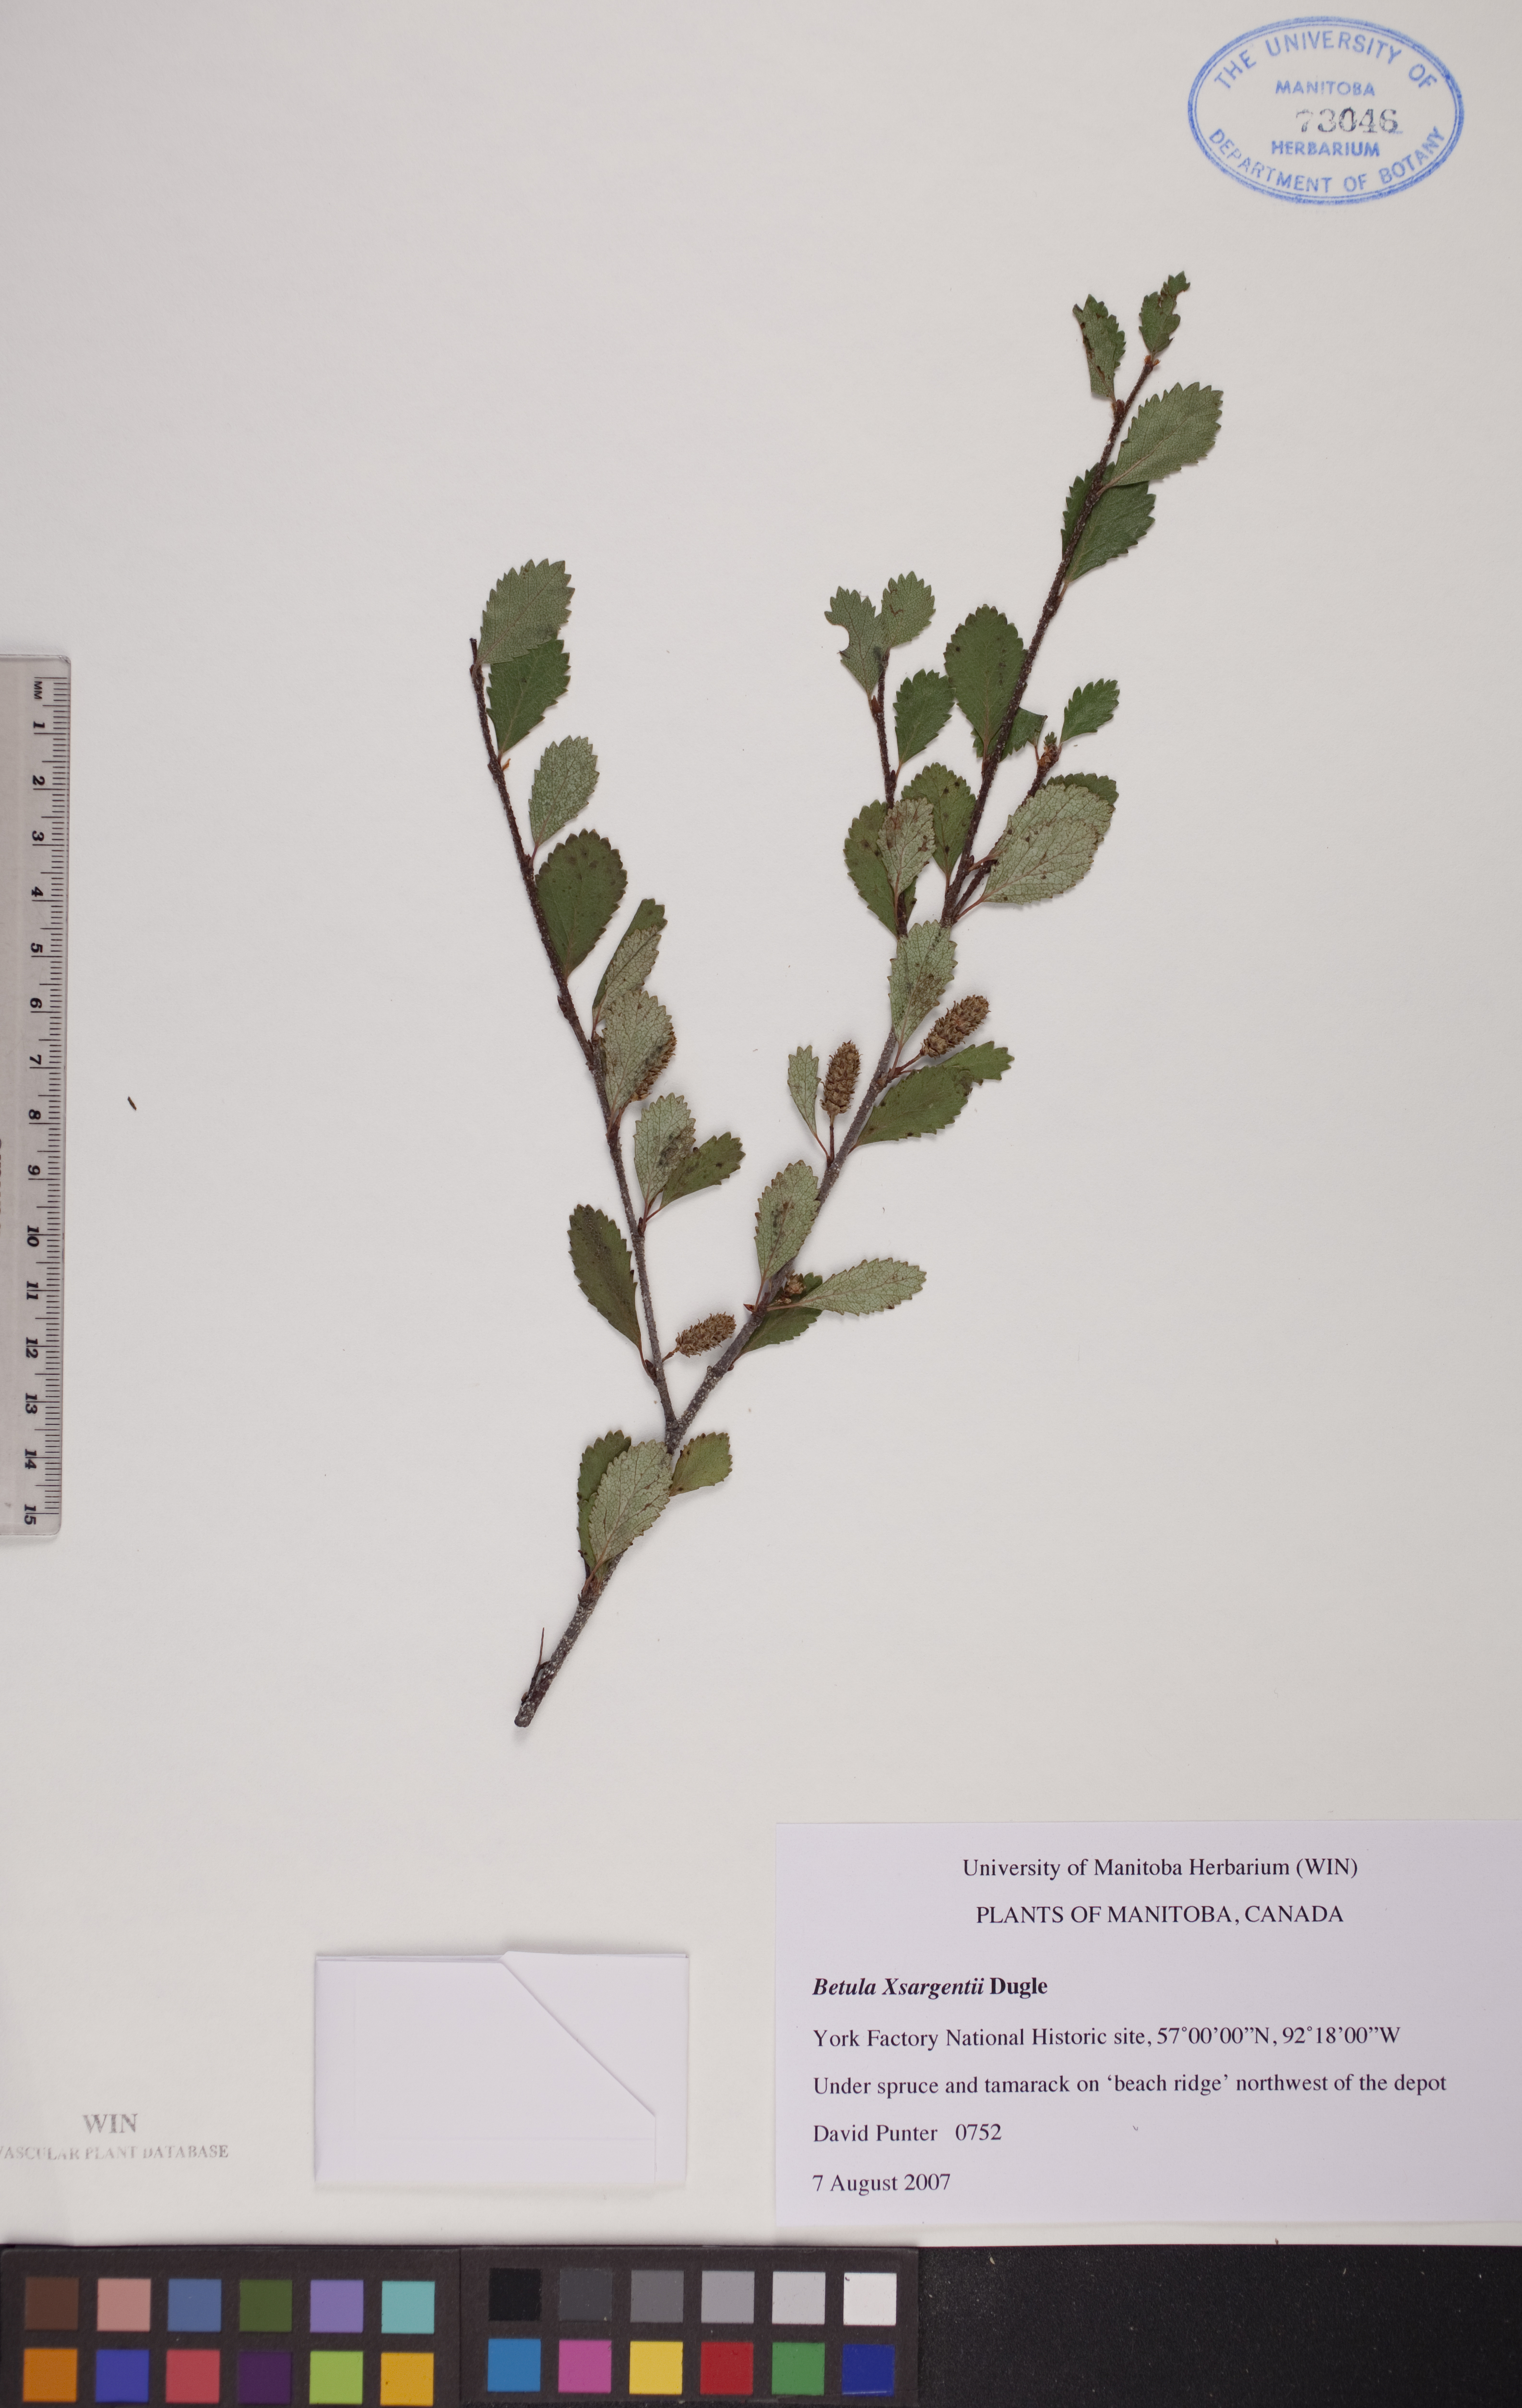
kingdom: Plantae
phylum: Tracheophyta
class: Magnoliopsida
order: Fagales
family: Betulaceae
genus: Betula
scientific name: Betula sargentii
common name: Sargent's birch
